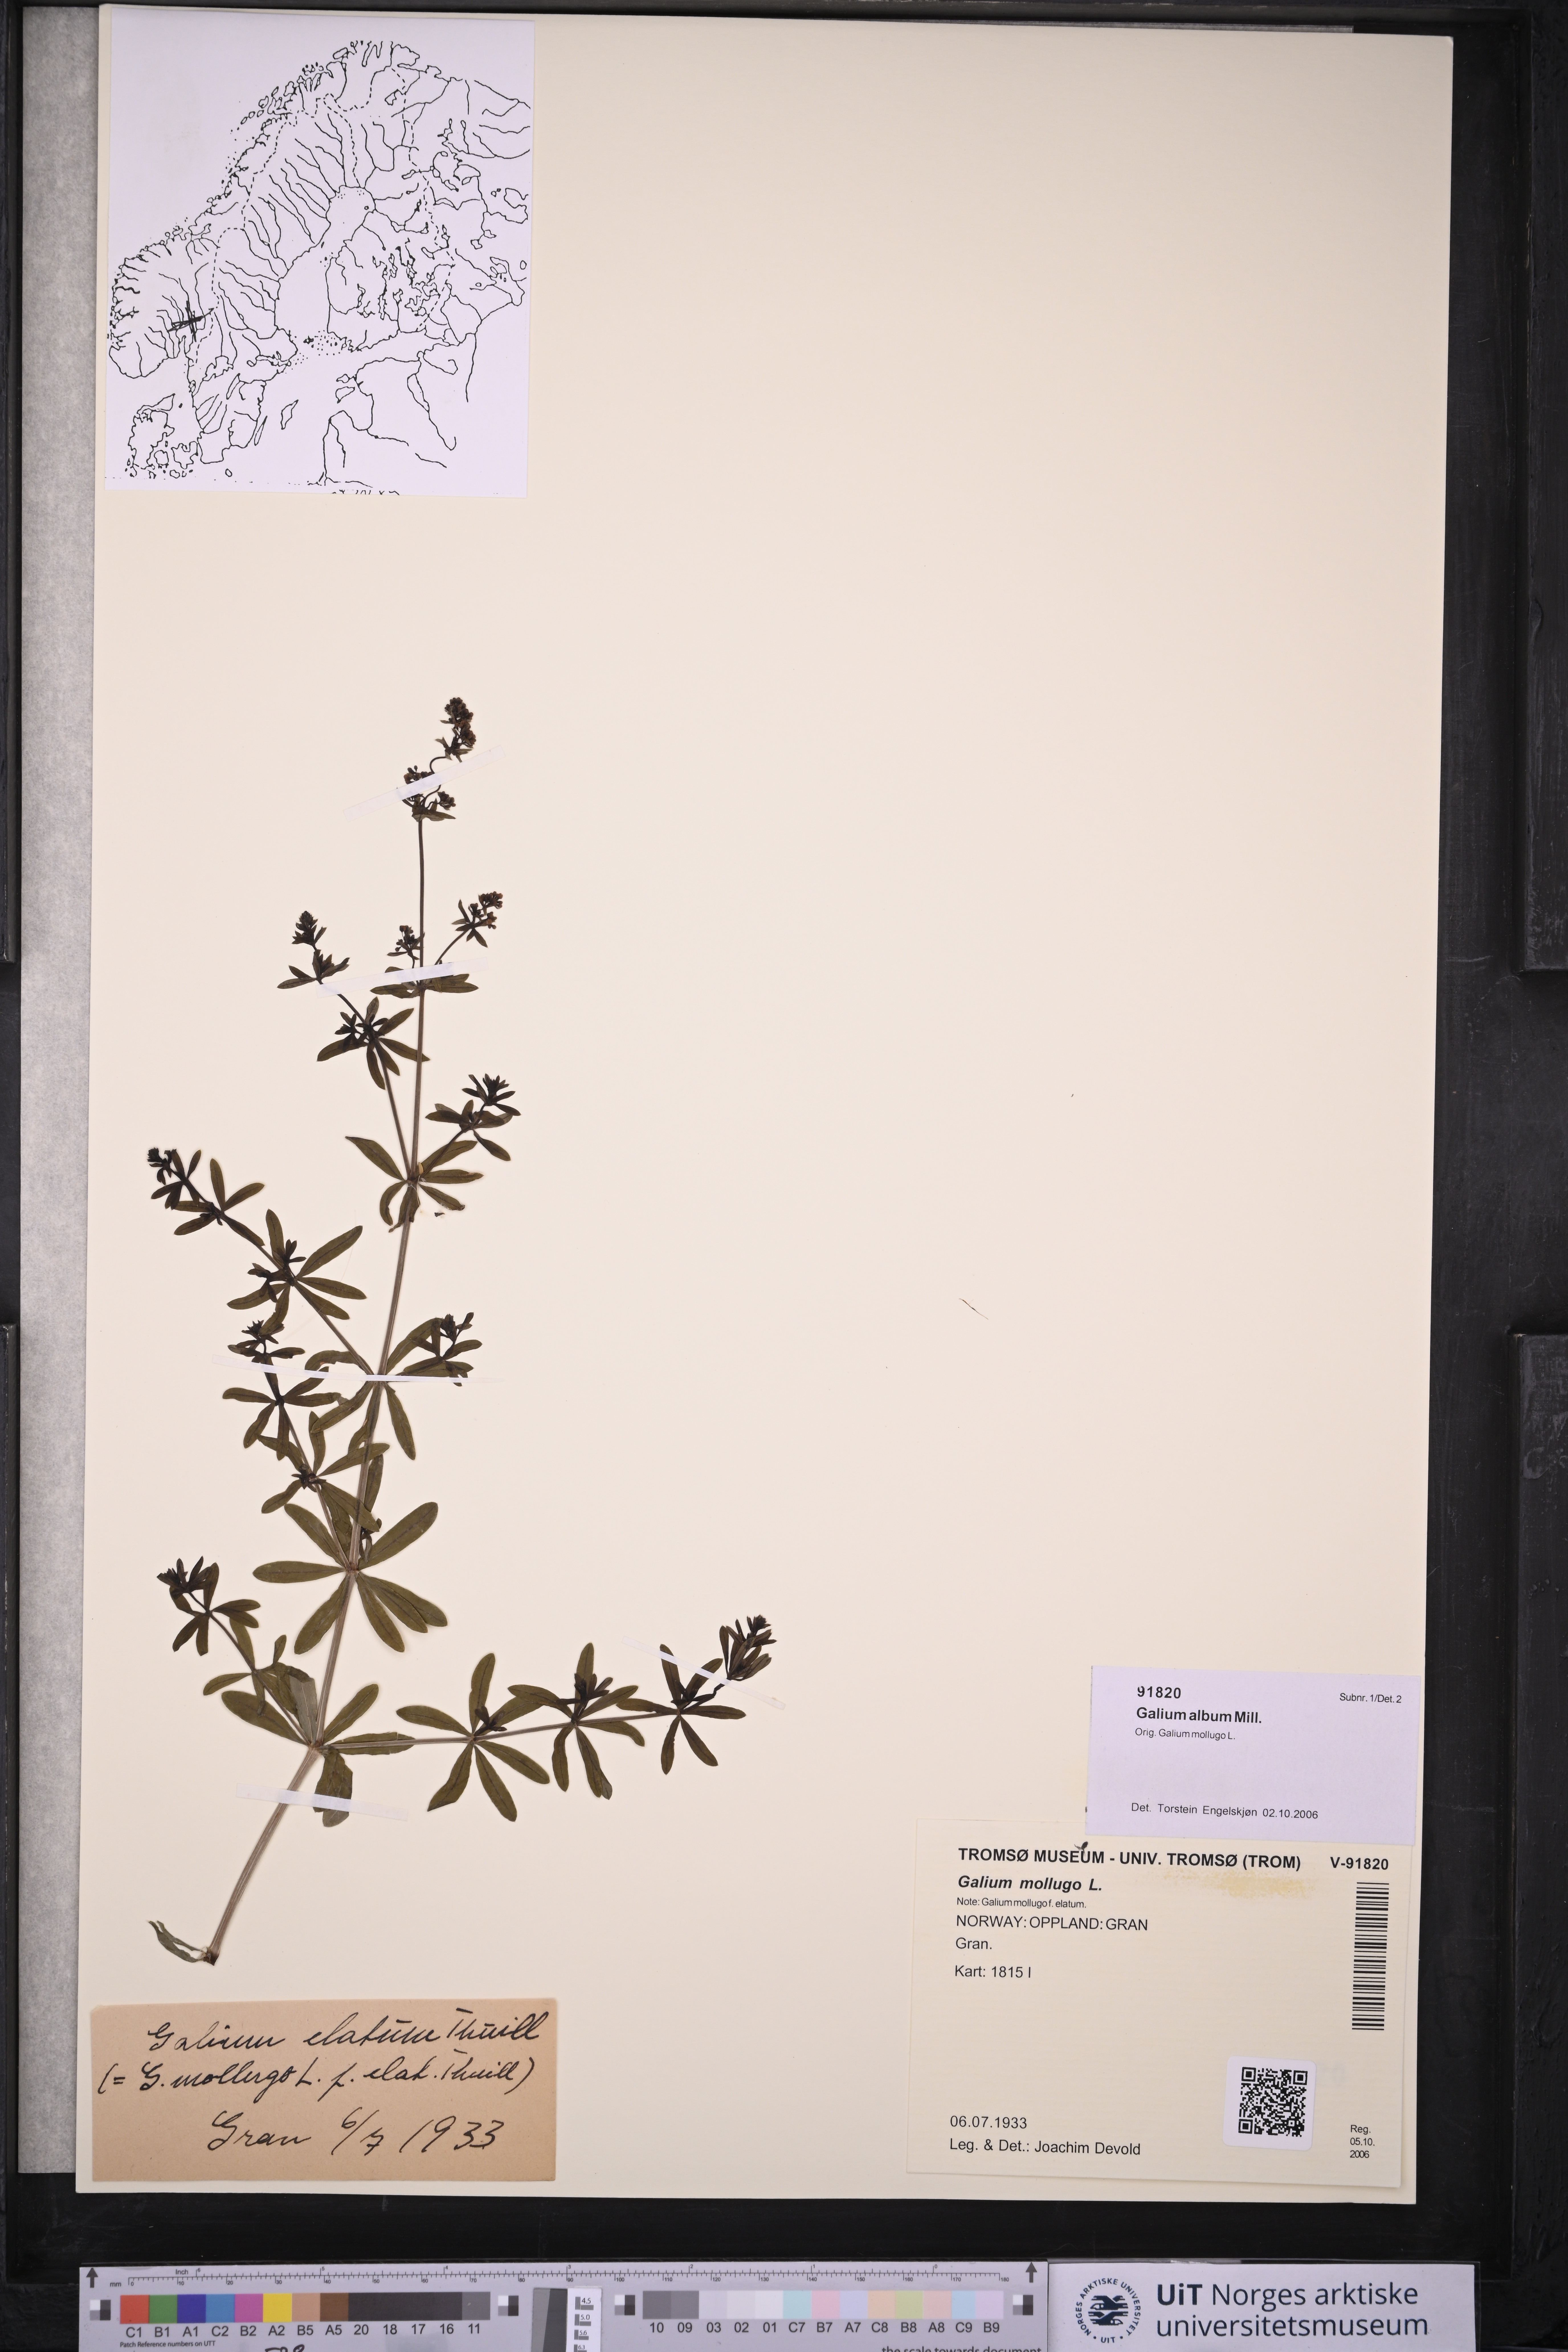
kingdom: Plantae
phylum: Tracheophyta
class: Magnoliopsida
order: Gentianales
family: Rubiaceae
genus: Galium
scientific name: Galium album
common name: White bedstraw
